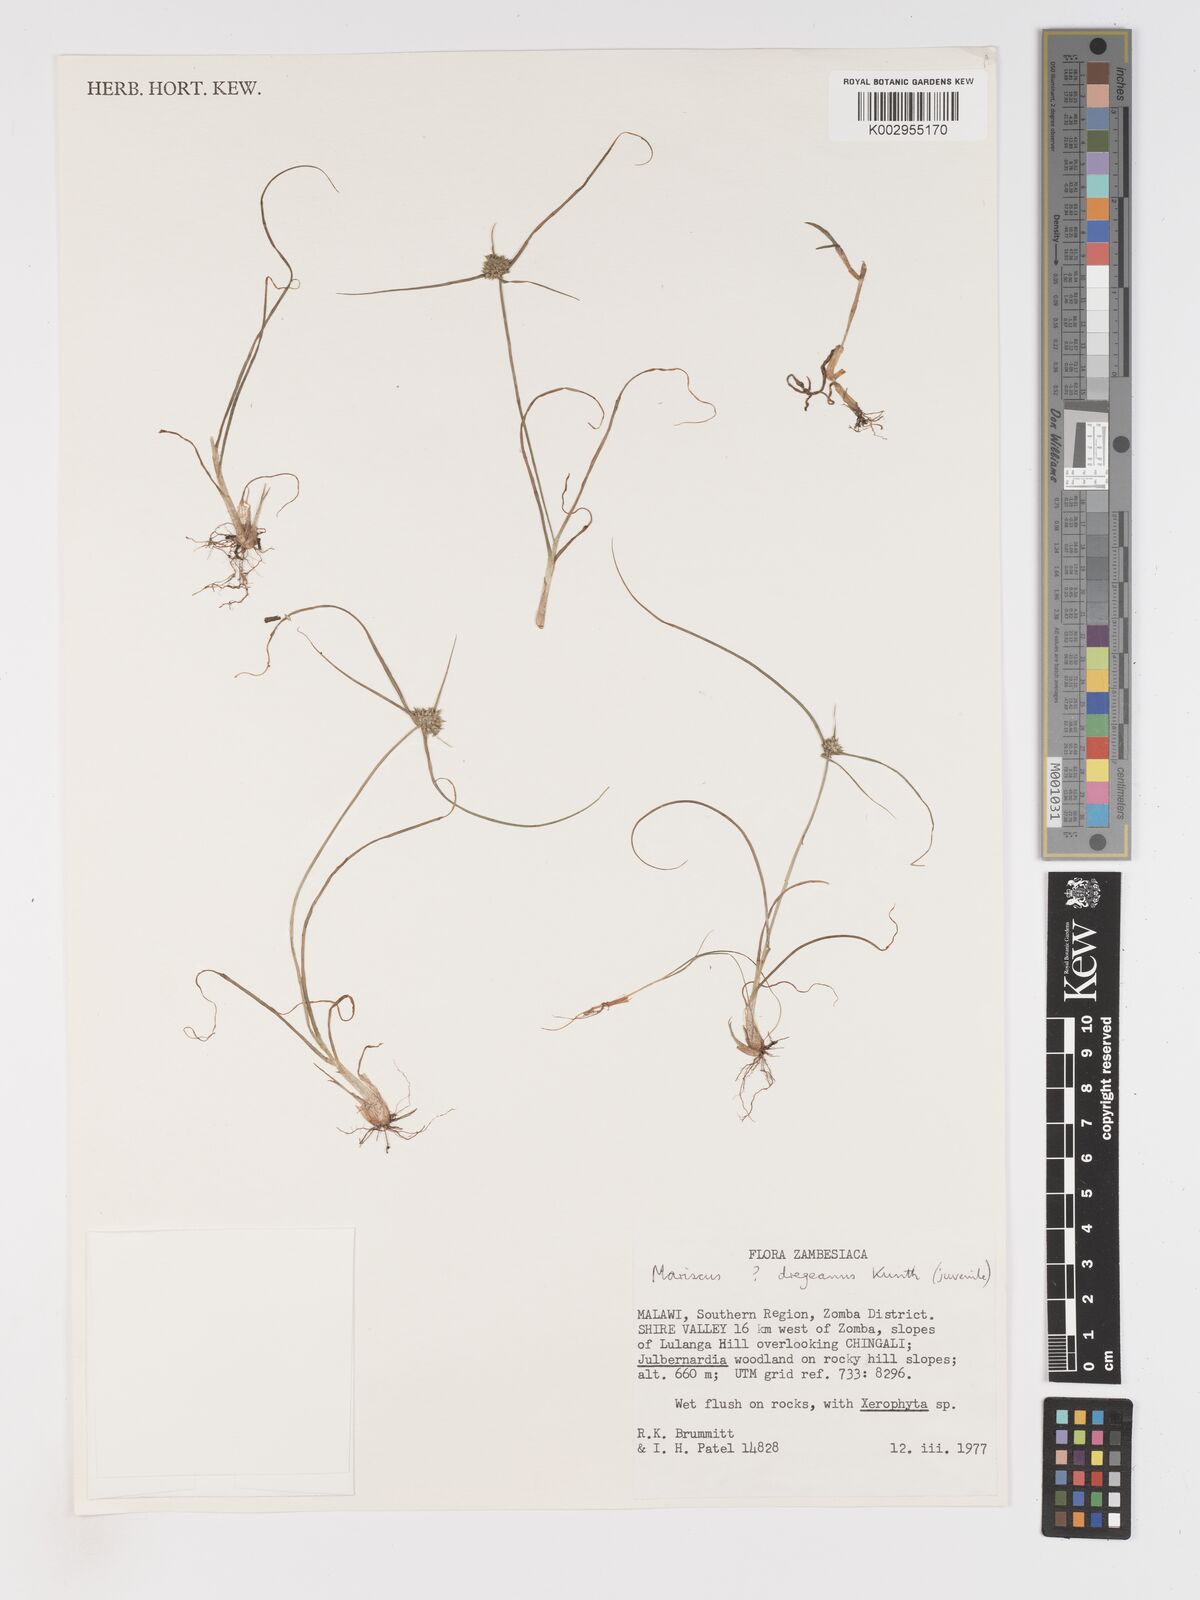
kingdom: Plantae
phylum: Tracheophyta
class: Liliopsida
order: Poales
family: Cyperaceae
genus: Cyperus
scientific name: Cyperus dubius
